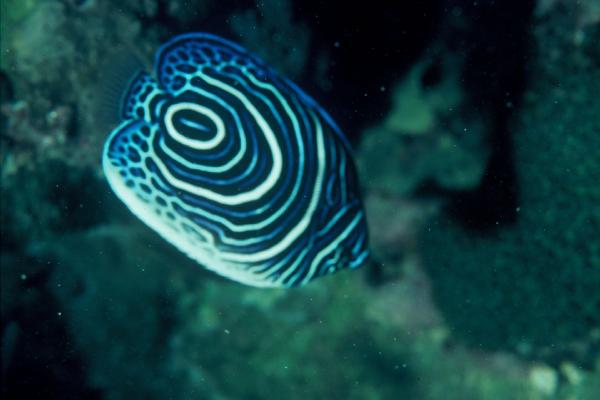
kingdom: Animalia
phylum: Chordata
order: Perciformes
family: Pomacanthidae
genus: Pomacanthus
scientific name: Pomacanthus imperator
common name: Emperor angelfish
